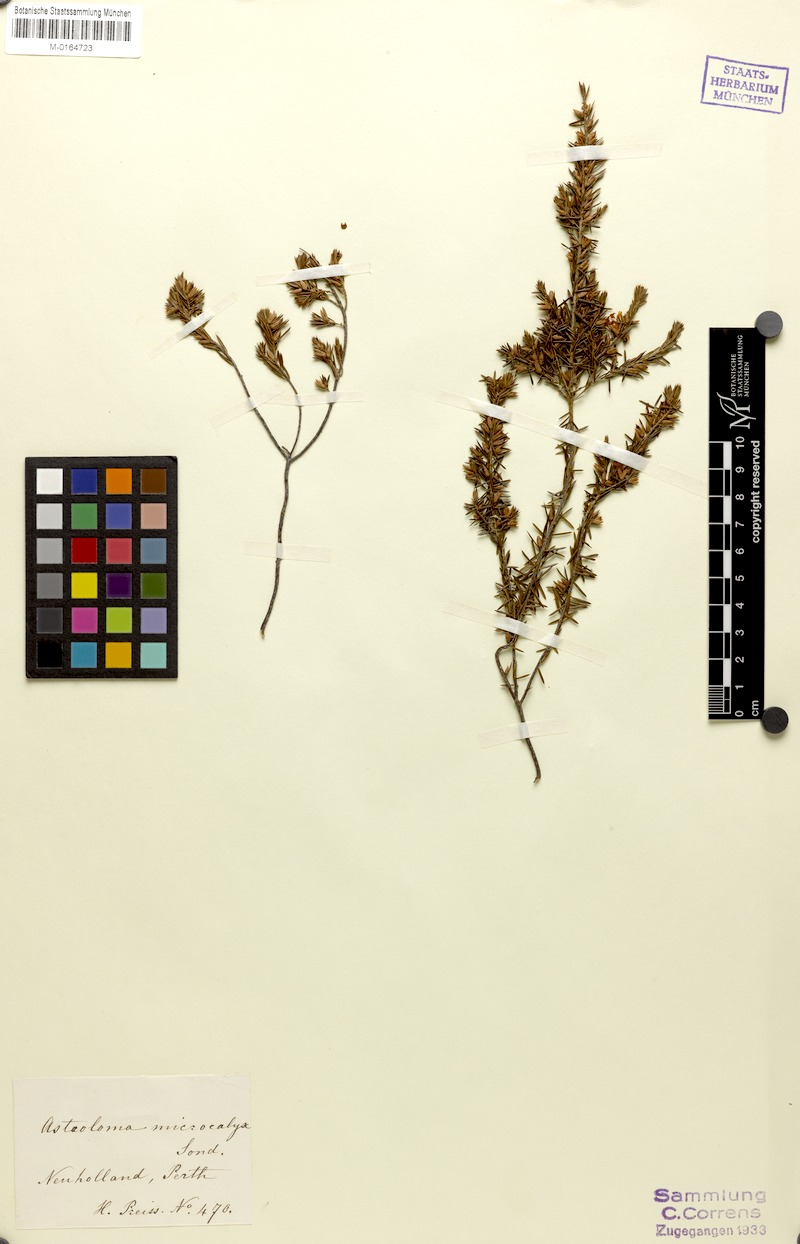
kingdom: Plantae
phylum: Tracheophyta
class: Magnoliopsida
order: Ericales
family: Ericaceae
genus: Styphelia
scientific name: Styphelia microcalyx
